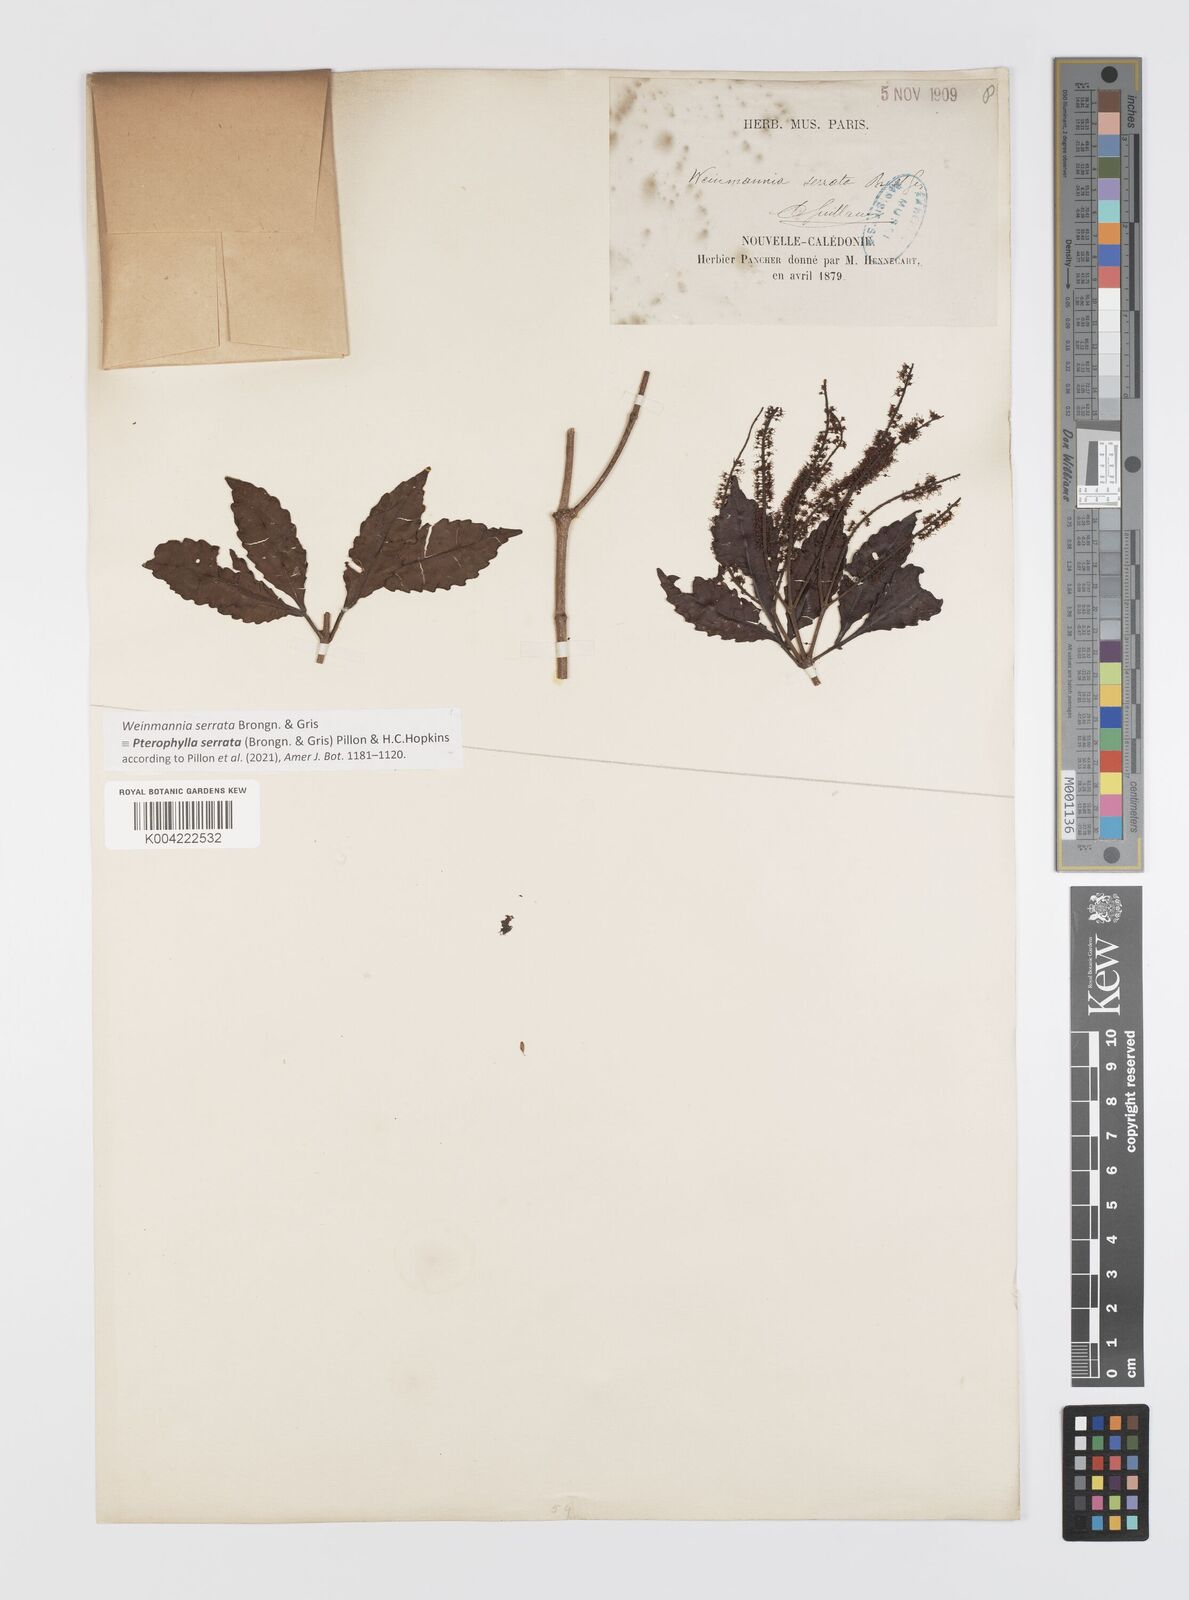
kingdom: Plantae
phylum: Tracheophyta
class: Magnoliopsida
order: Oxalidales
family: Cunoniaceae
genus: Pterophylla
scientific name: Pterophylla serrata
